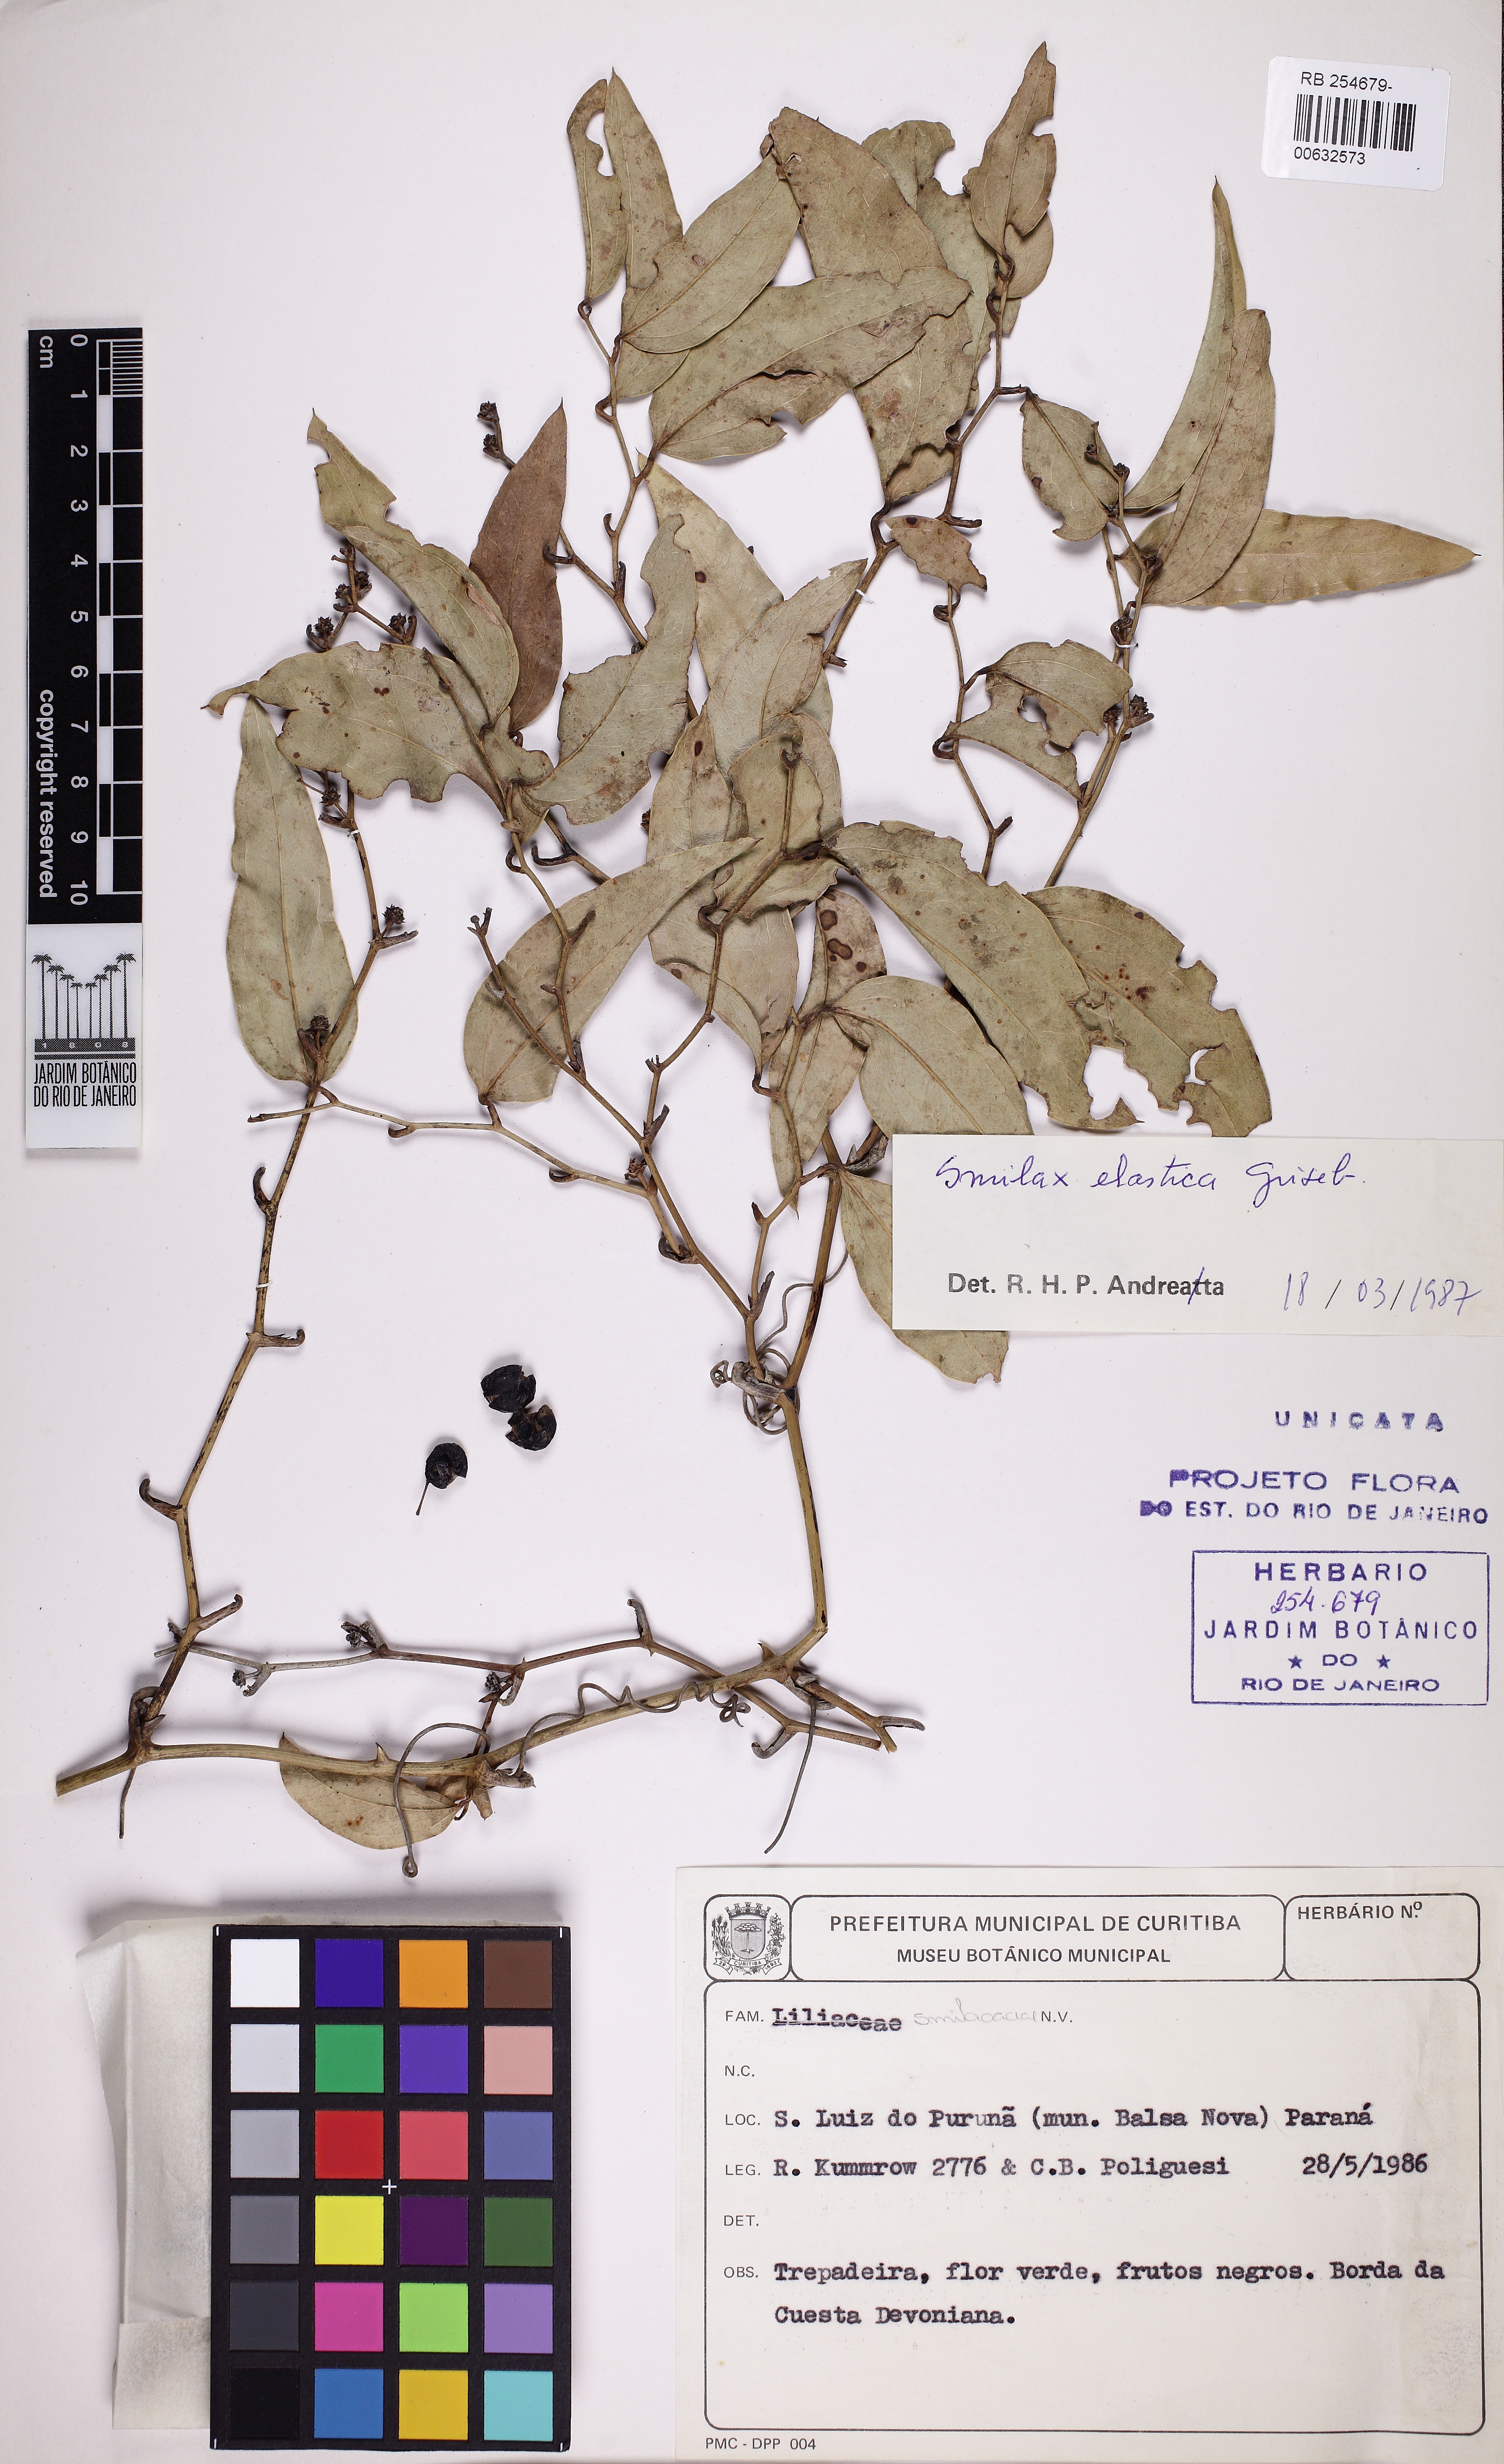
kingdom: Plantae
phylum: Tracheophyta
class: Liliopsida
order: Liliales
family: Smilacaceae
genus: Smilax
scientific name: Smilax elastica
